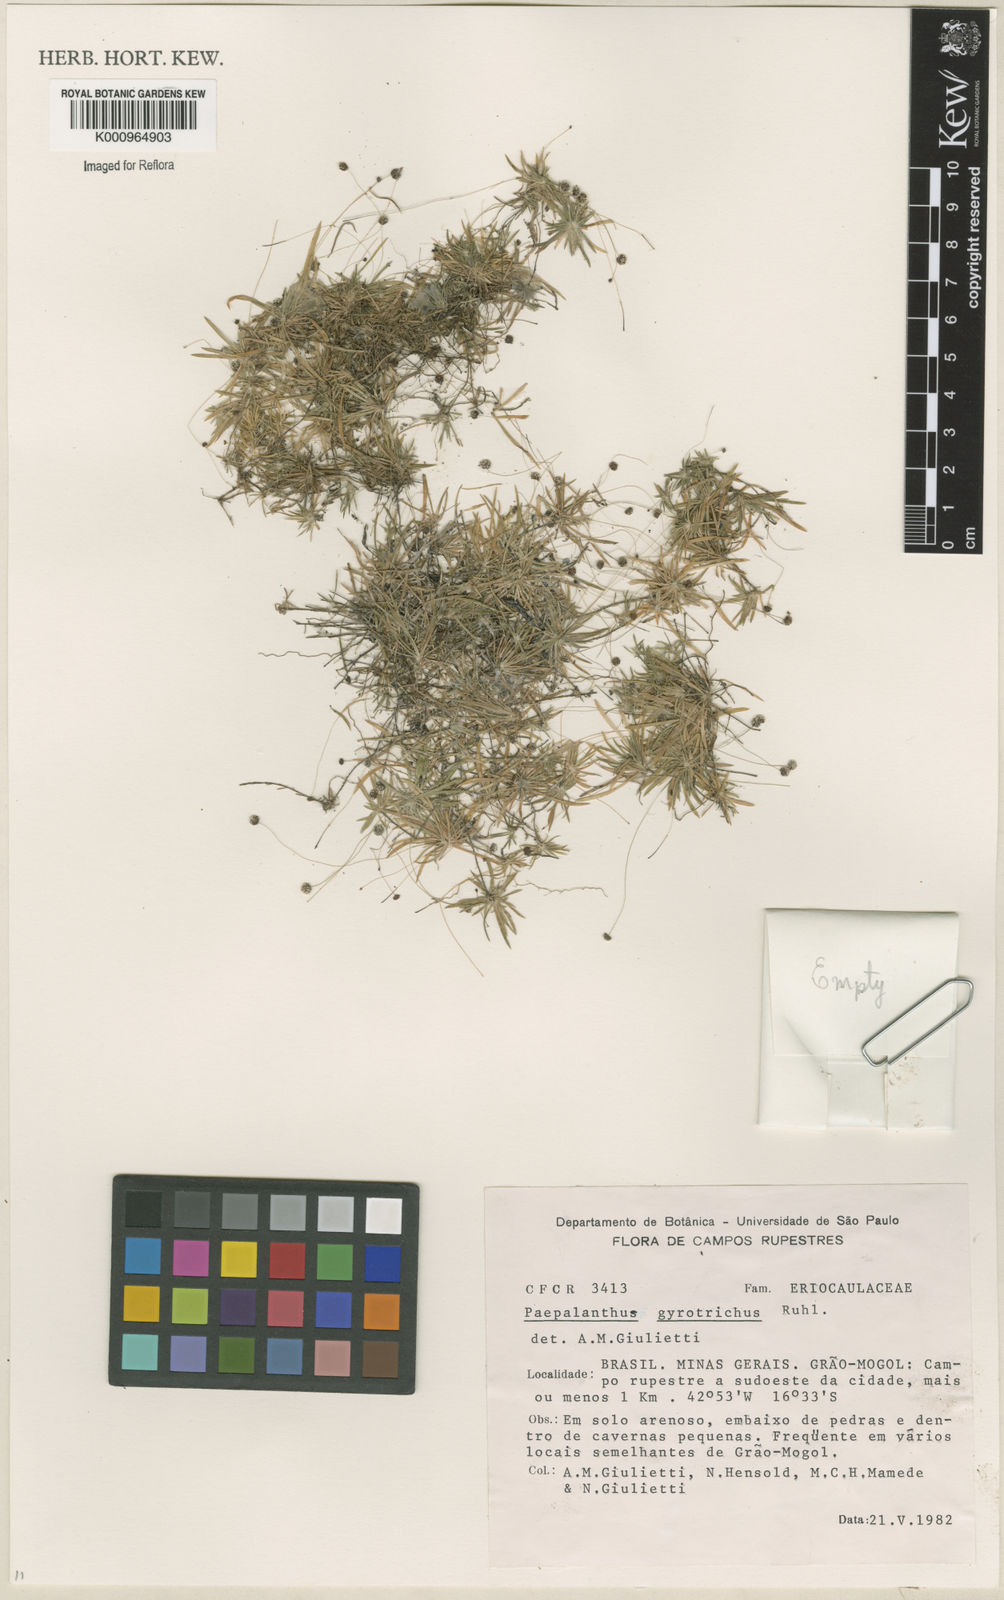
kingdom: Plantae
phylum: Tracheophyta
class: Liliopsida
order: Poales
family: Eriocaulaceae
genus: Paepalanthus
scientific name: Paepalanthus gyrotrichus
